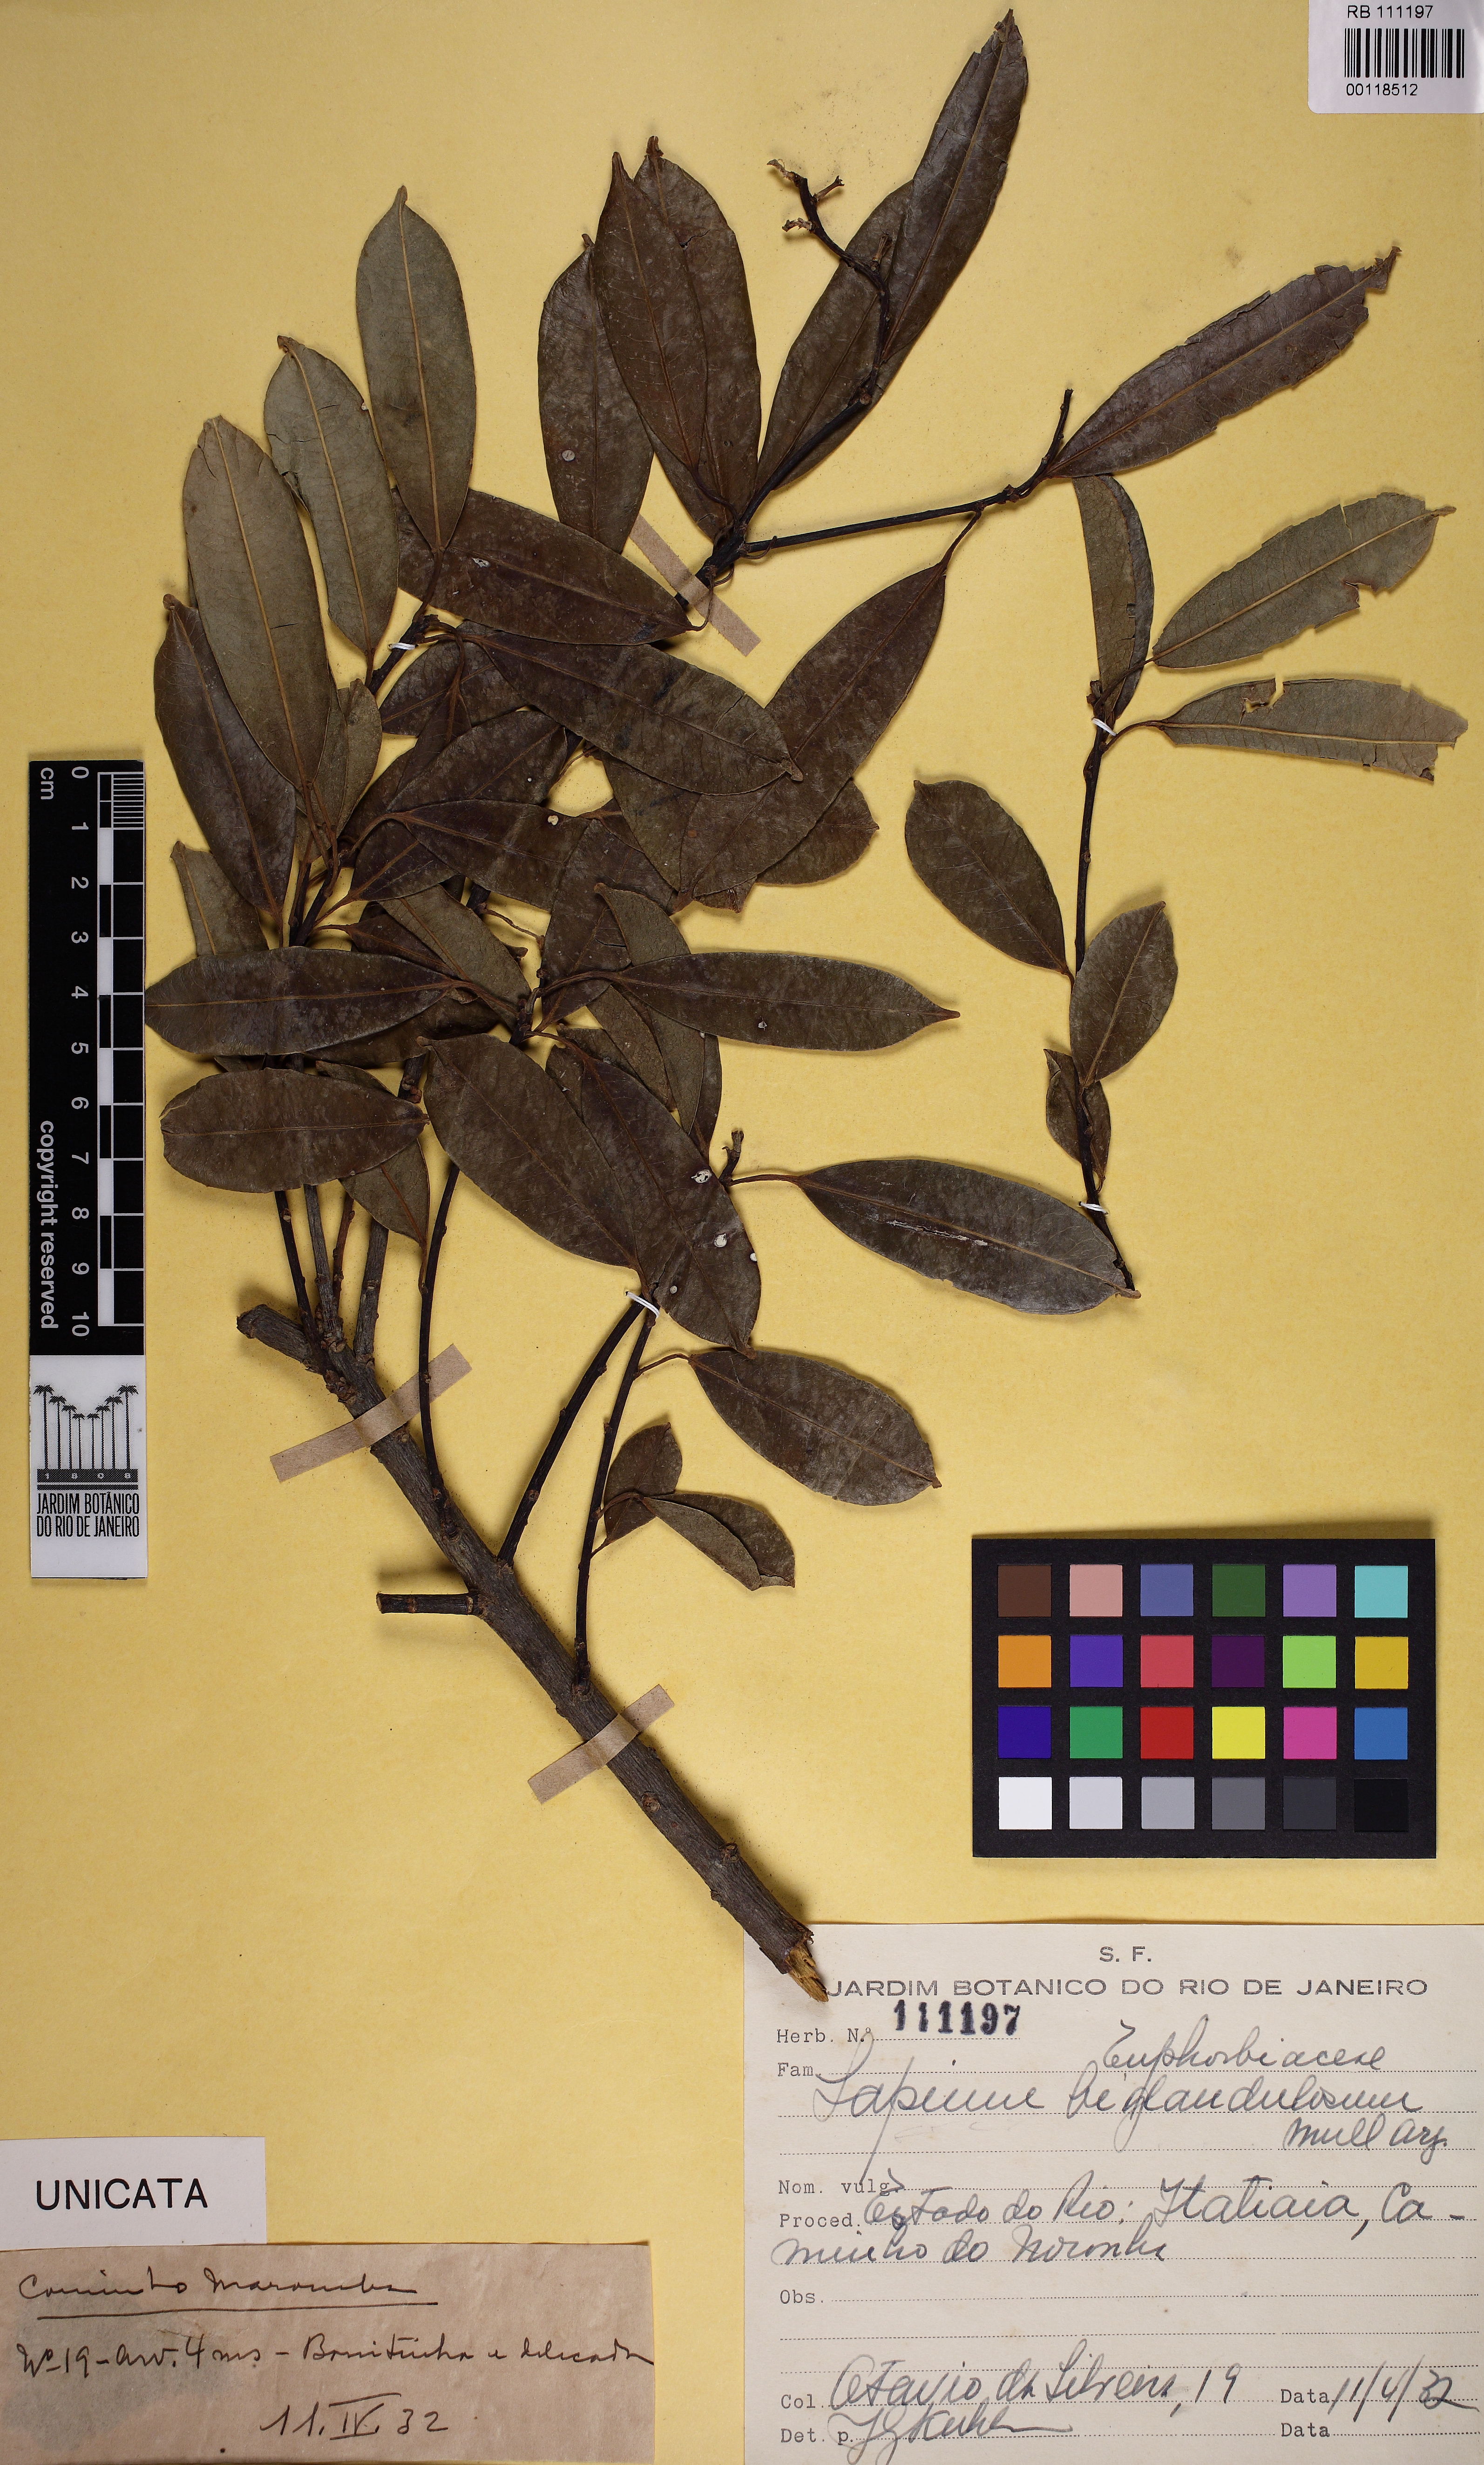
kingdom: Plantae
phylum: Tracheophyta
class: Magnoliopsida
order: Malpighiales
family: Euphorbiaceae
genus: Sapium
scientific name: Sapium sellowianum
